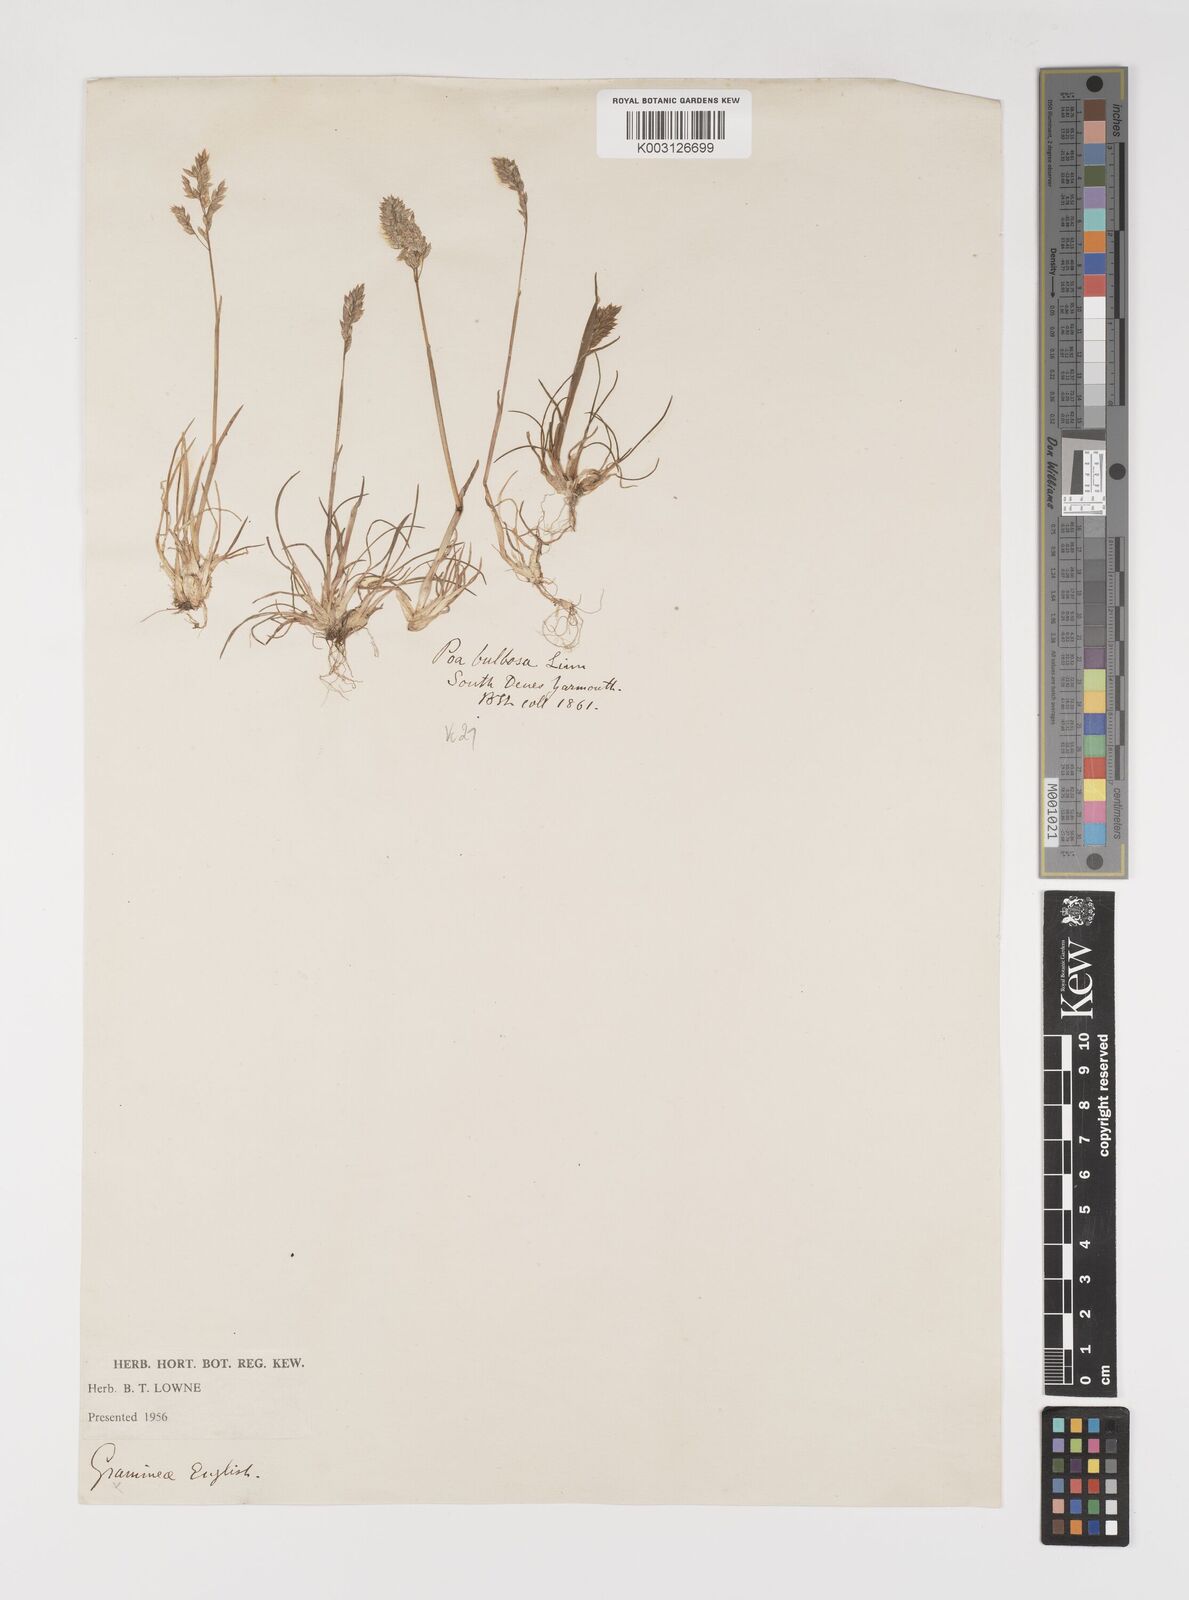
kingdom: Plantae
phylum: Tracheophyta
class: Liliopsida
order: Poales
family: Poaceae
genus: Poa
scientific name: Poa bulbosa
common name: Bulbous bluegrass
